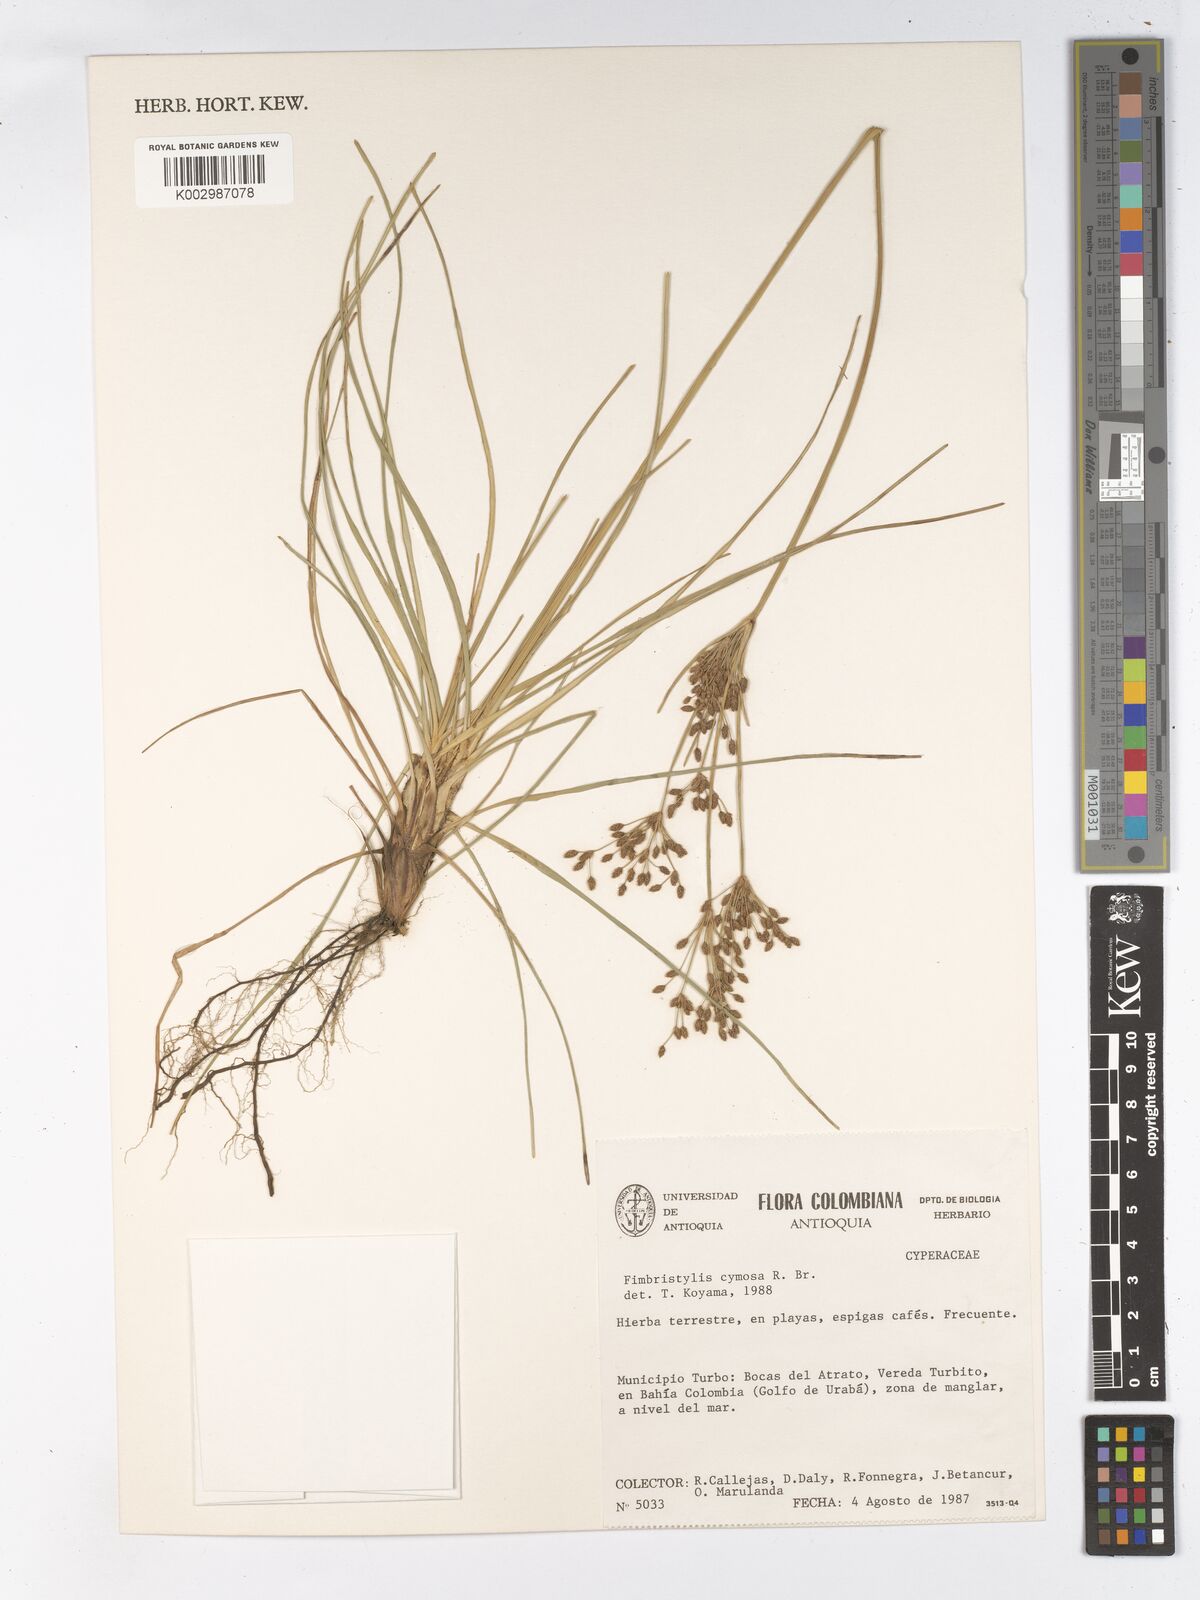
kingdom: Plantae
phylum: Tracheophyta
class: Liliopsida
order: Poales
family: Cyperaceae
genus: Fimbristylis
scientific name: Fimbristylis cymosa
